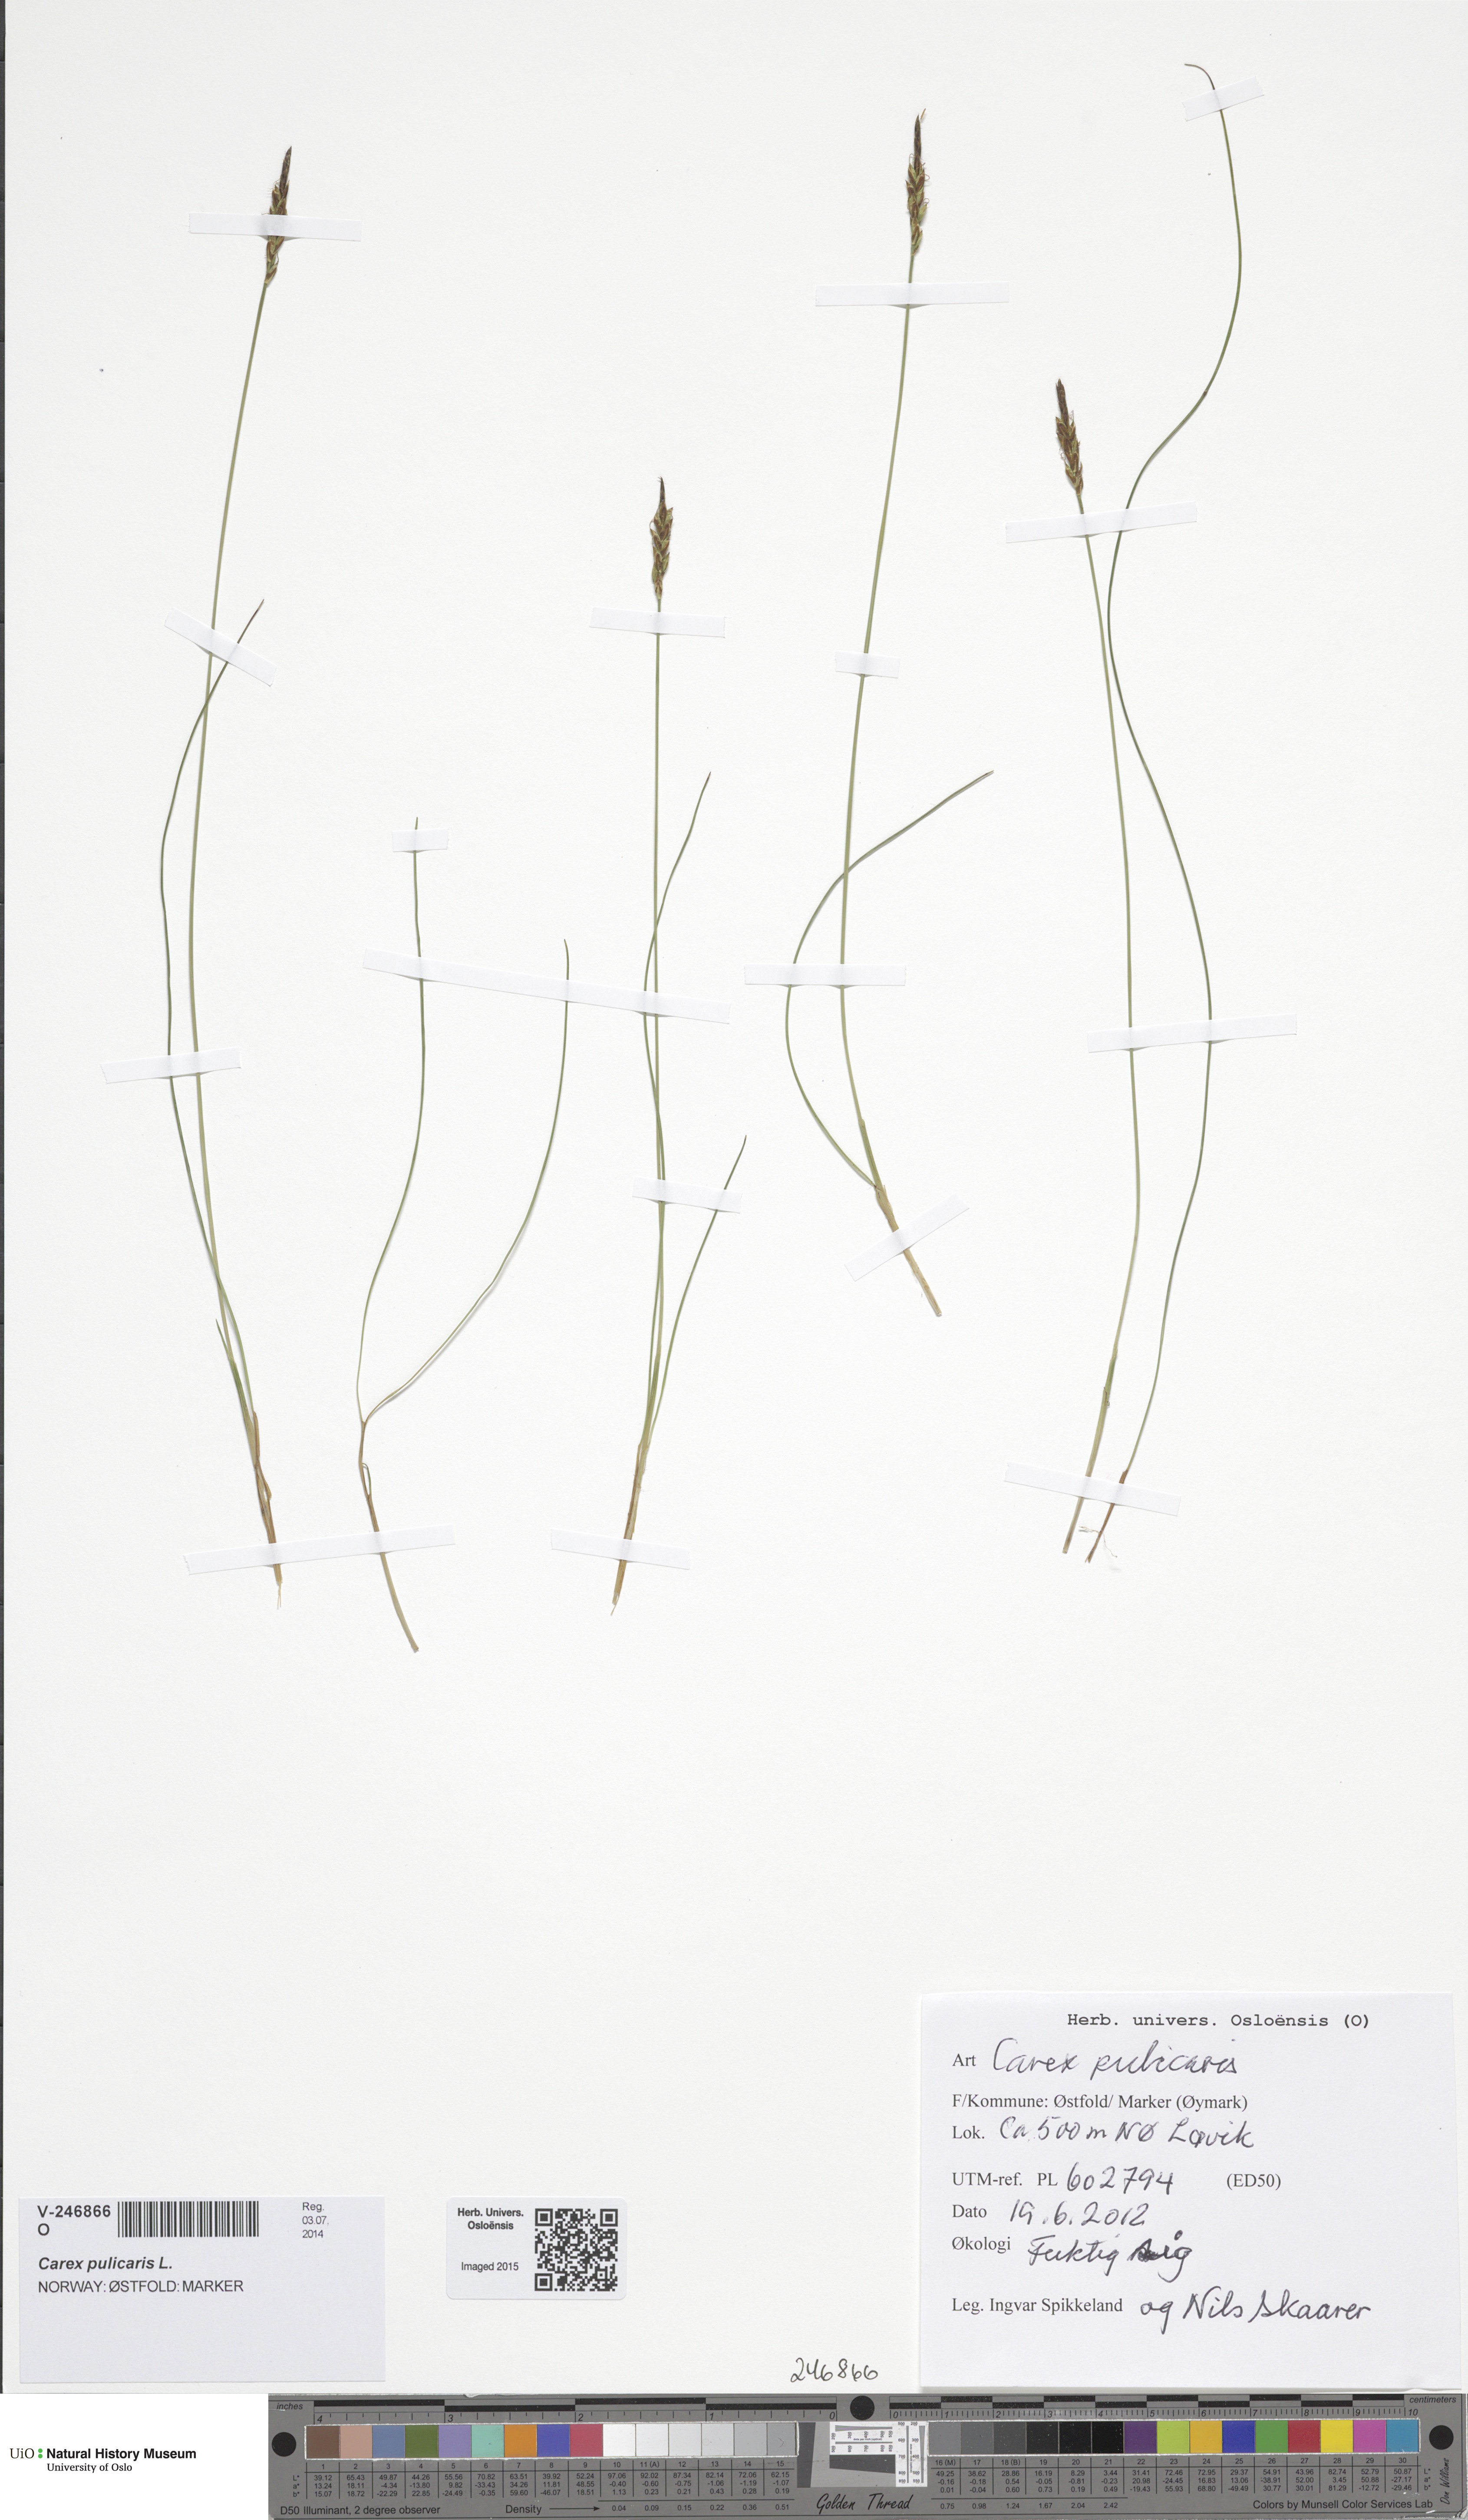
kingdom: Plantae
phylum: Tracheophyta
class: Liliopsida
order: Poales
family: Cyperaceae
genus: Carex
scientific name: Carex pulicaris
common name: Flea sedge
